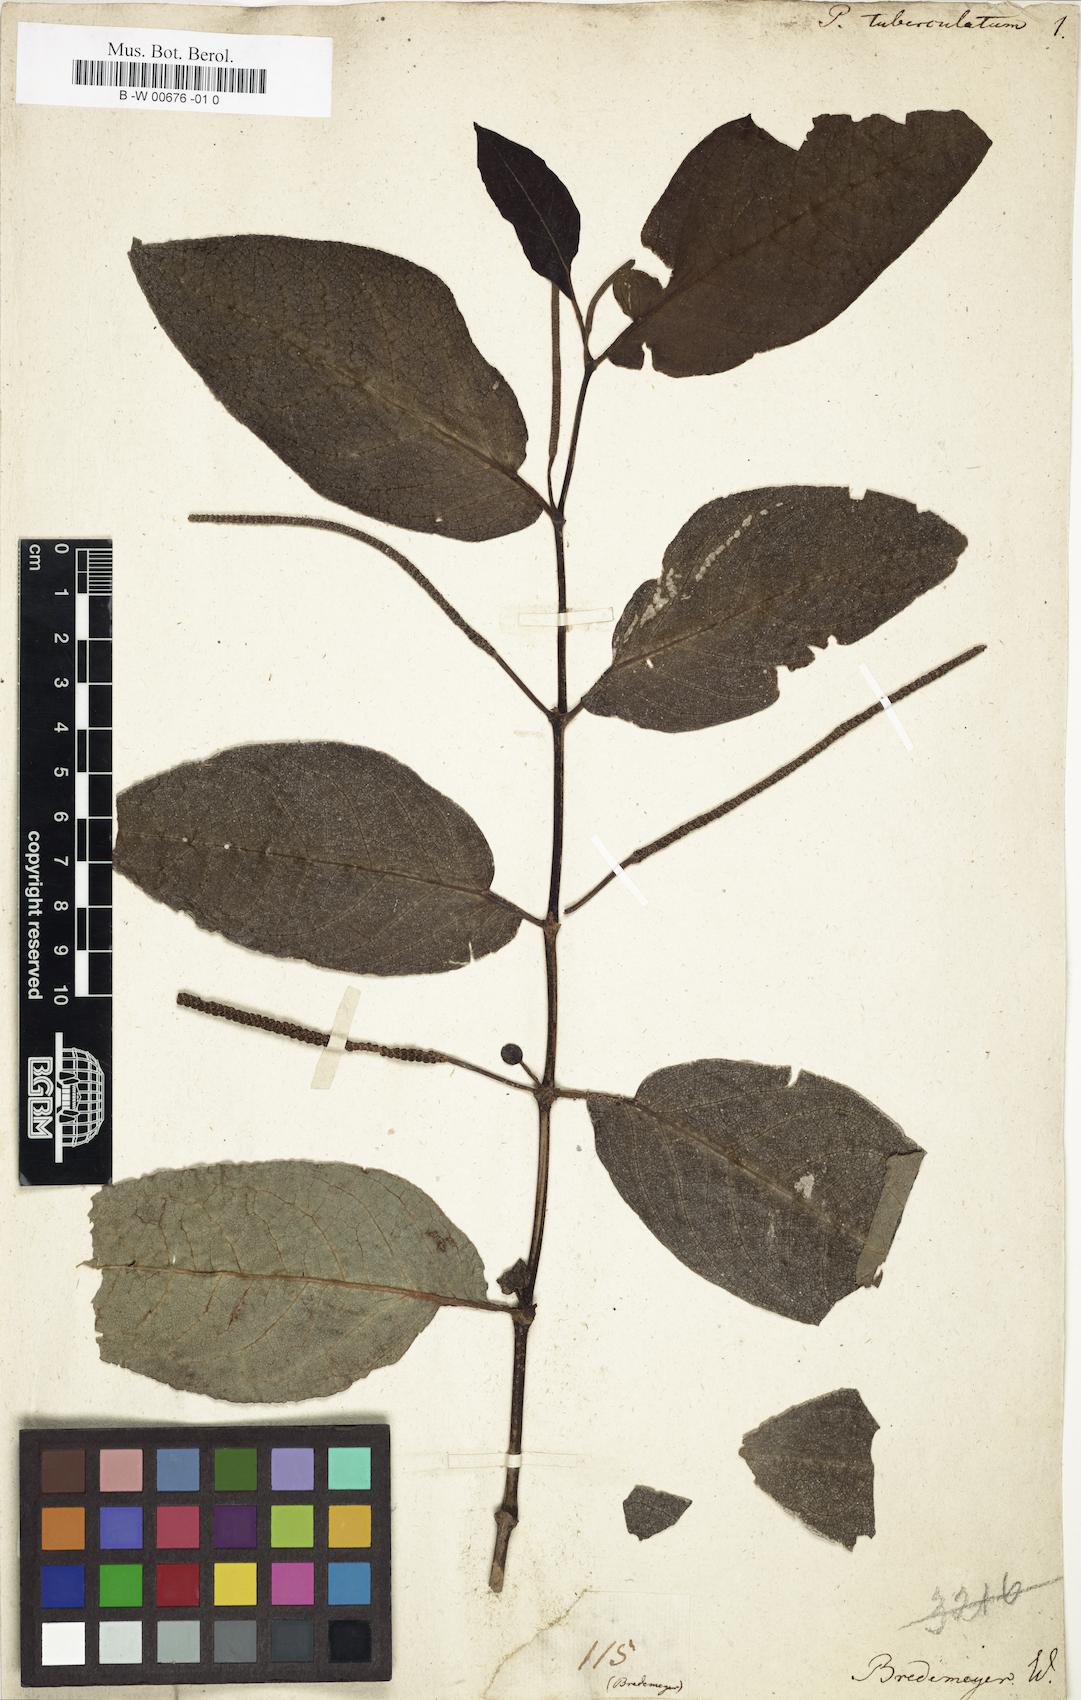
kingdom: Plantae
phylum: Tracheophyta
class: Magnoliopsida
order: Piperales
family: Piperaceae
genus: Piper
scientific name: Piper tuberculatum
